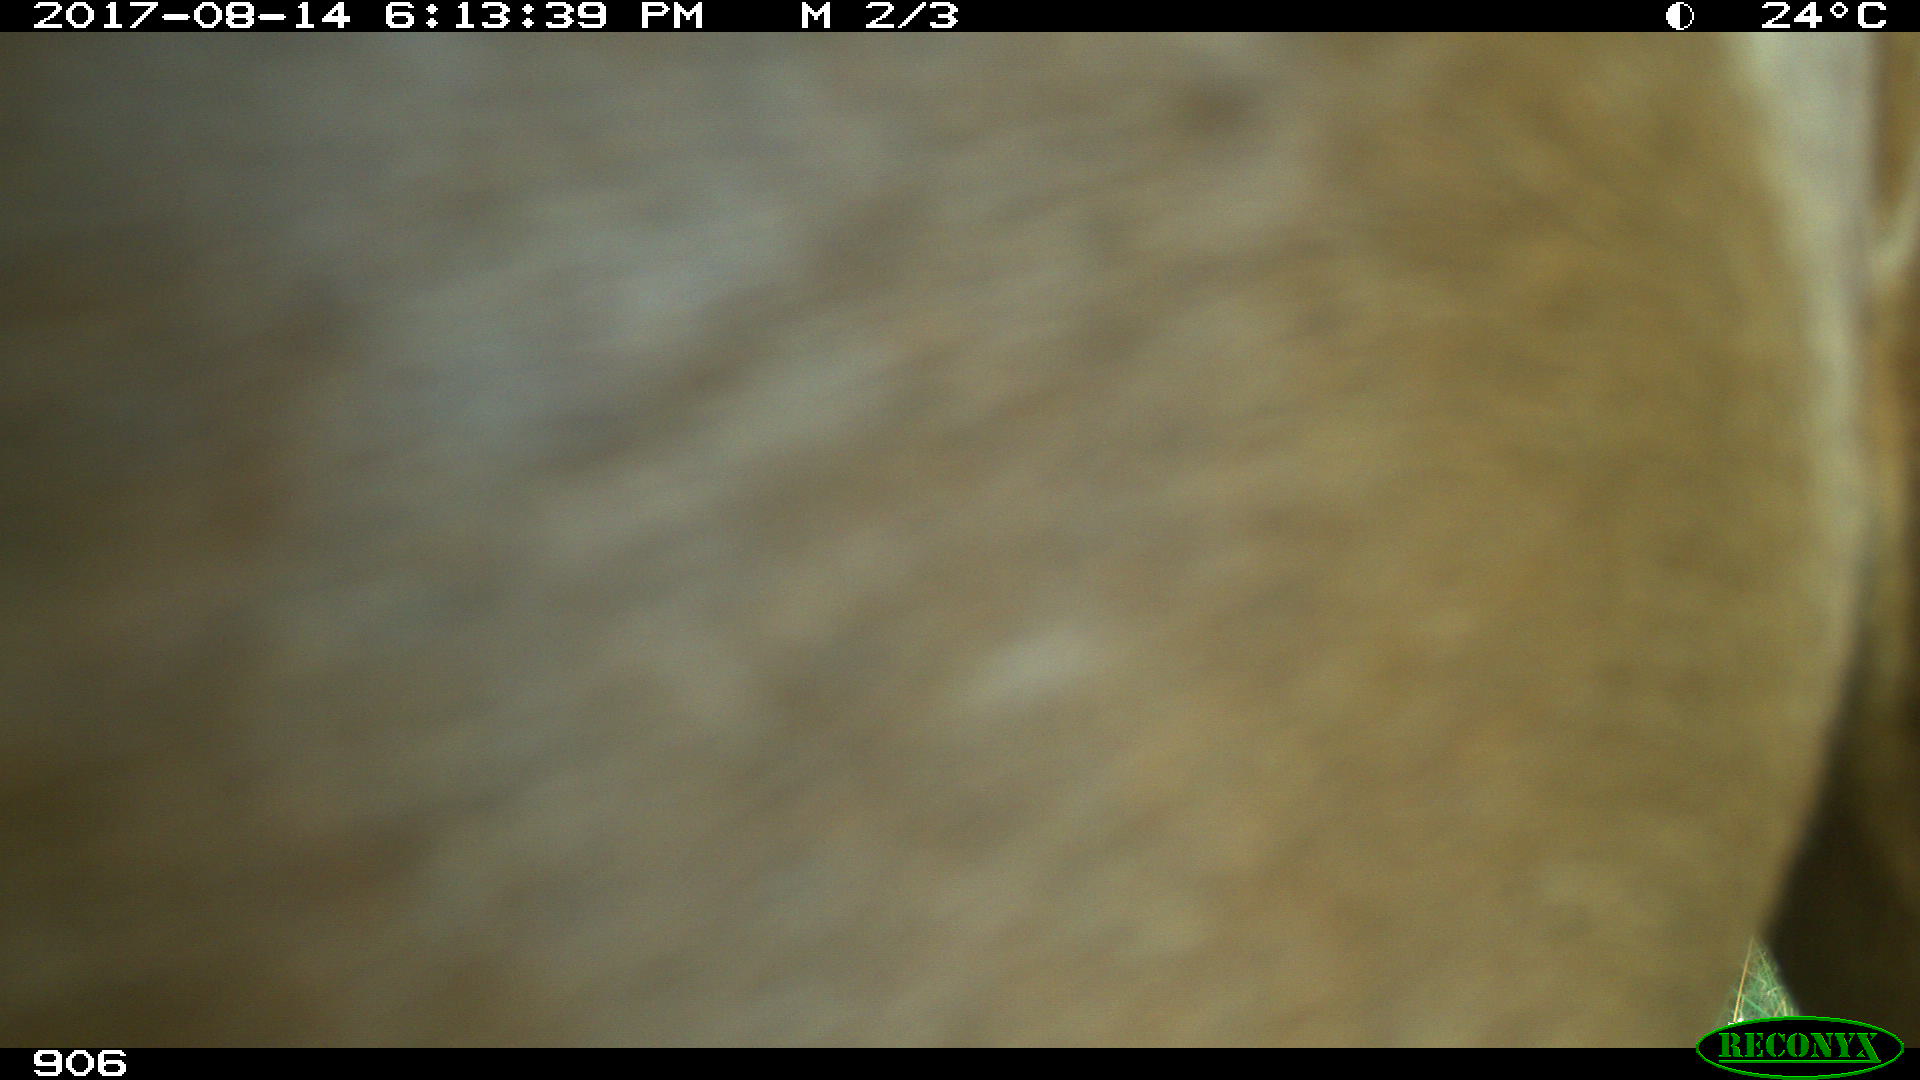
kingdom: Animalia
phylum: Chordata
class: Mammalia
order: Perissodactyla
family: Equidae
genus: Equus
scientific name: Equus caballus
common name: Horse
